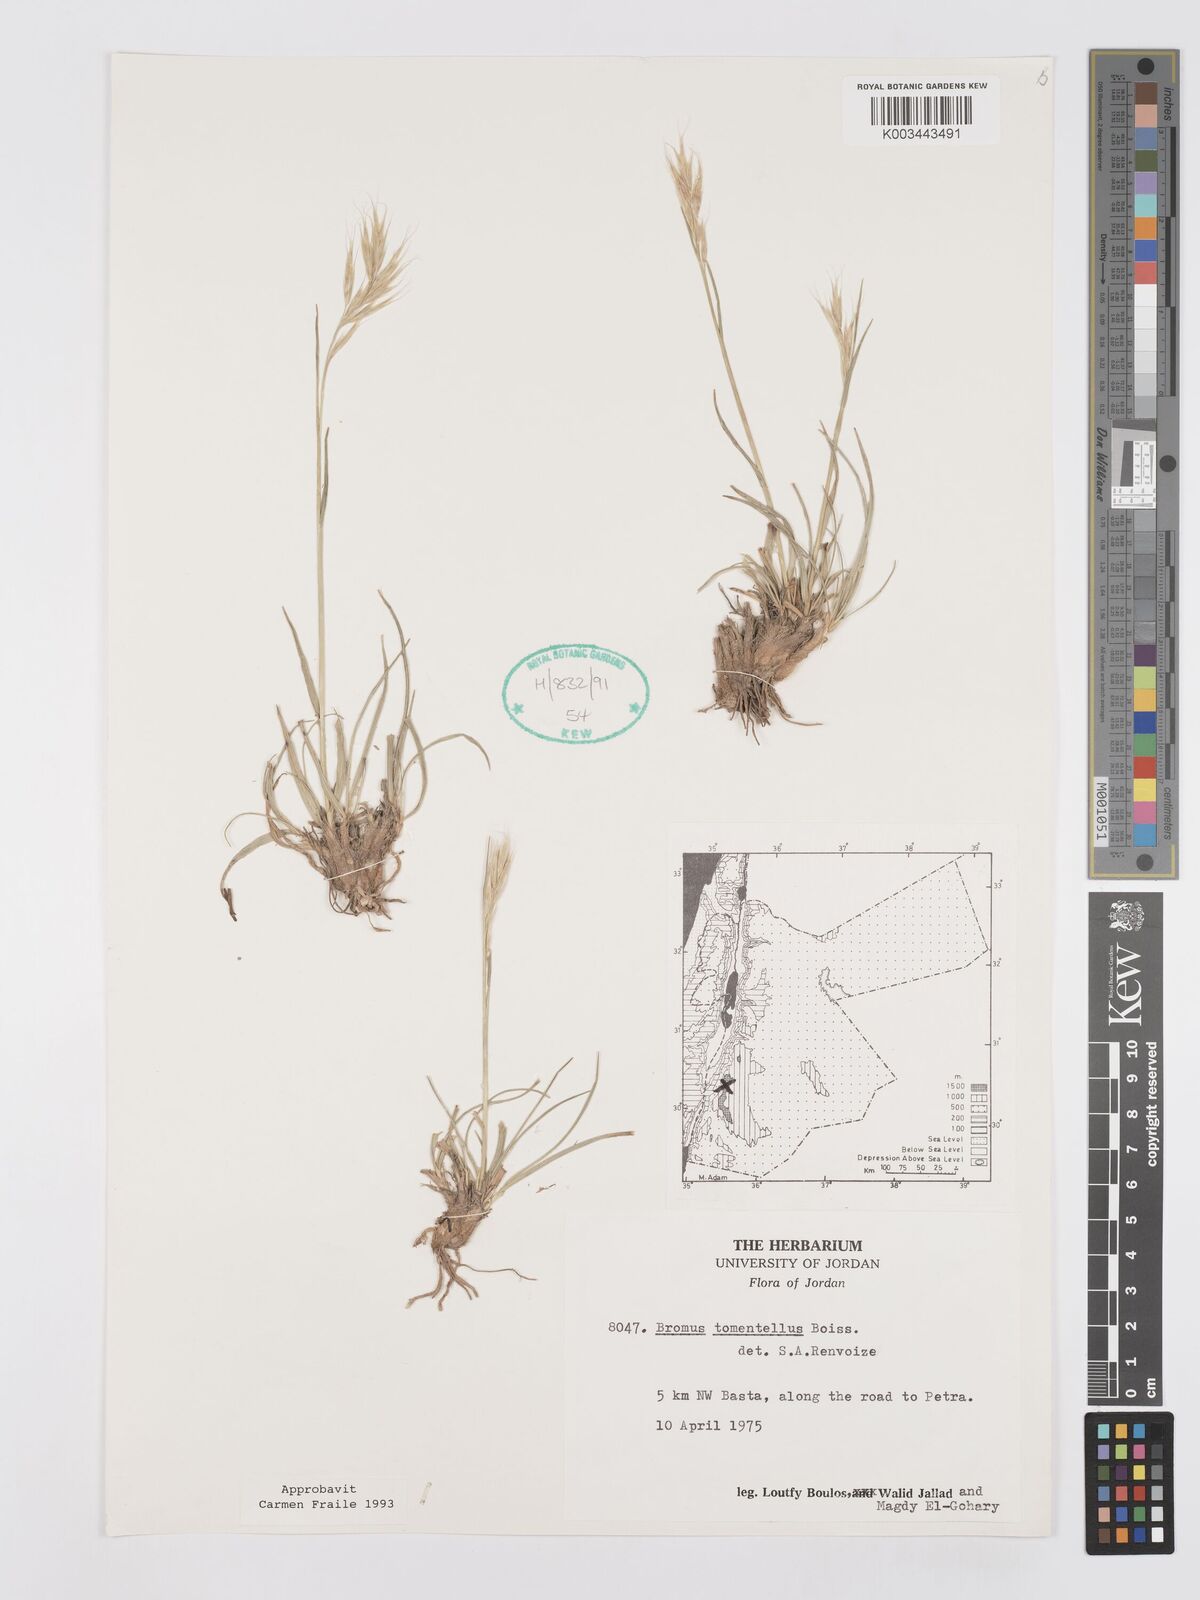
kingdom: Plantae
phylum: Tracheophyta
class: Liliopsida
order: Poales
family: Poaceae
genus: Bromus
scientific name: Bromus tomentellus
